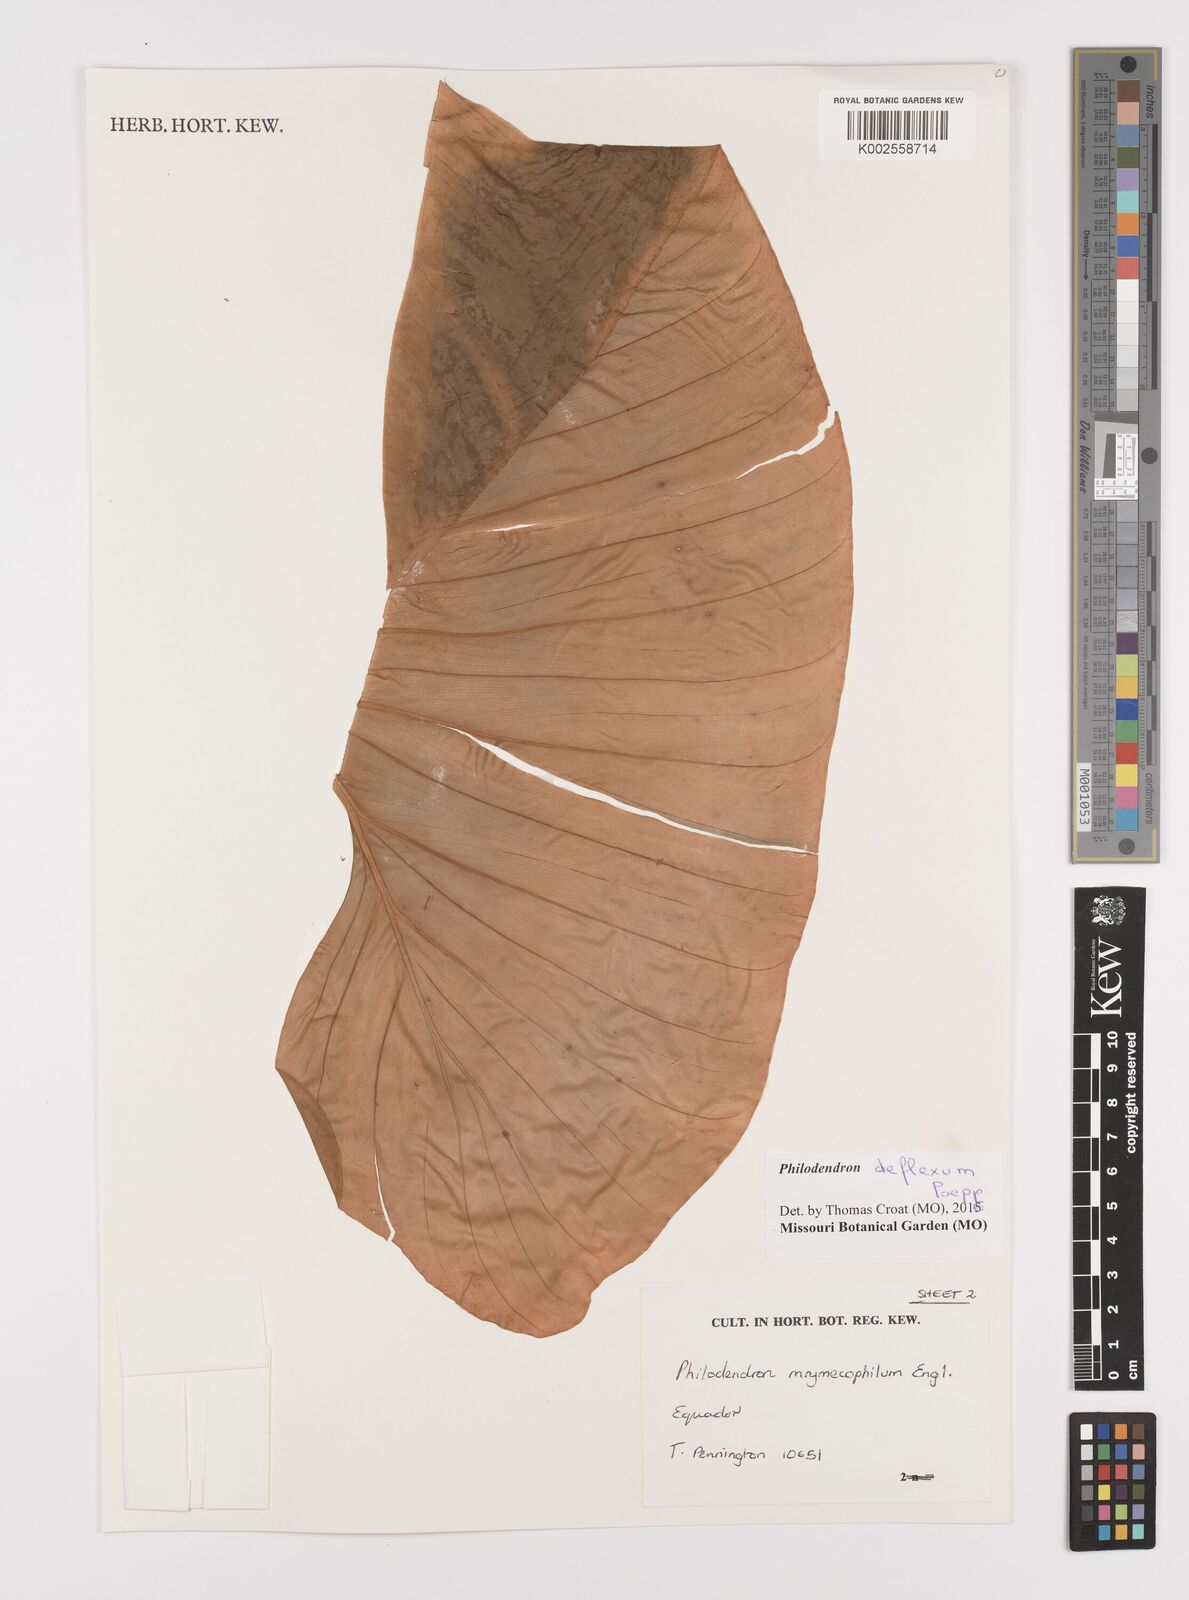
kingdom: Plantae
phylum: Tracheophyta
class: Liliopsida
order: Alismatales
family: Araceae
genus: Philodendron
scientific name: Philodendron deflexum
